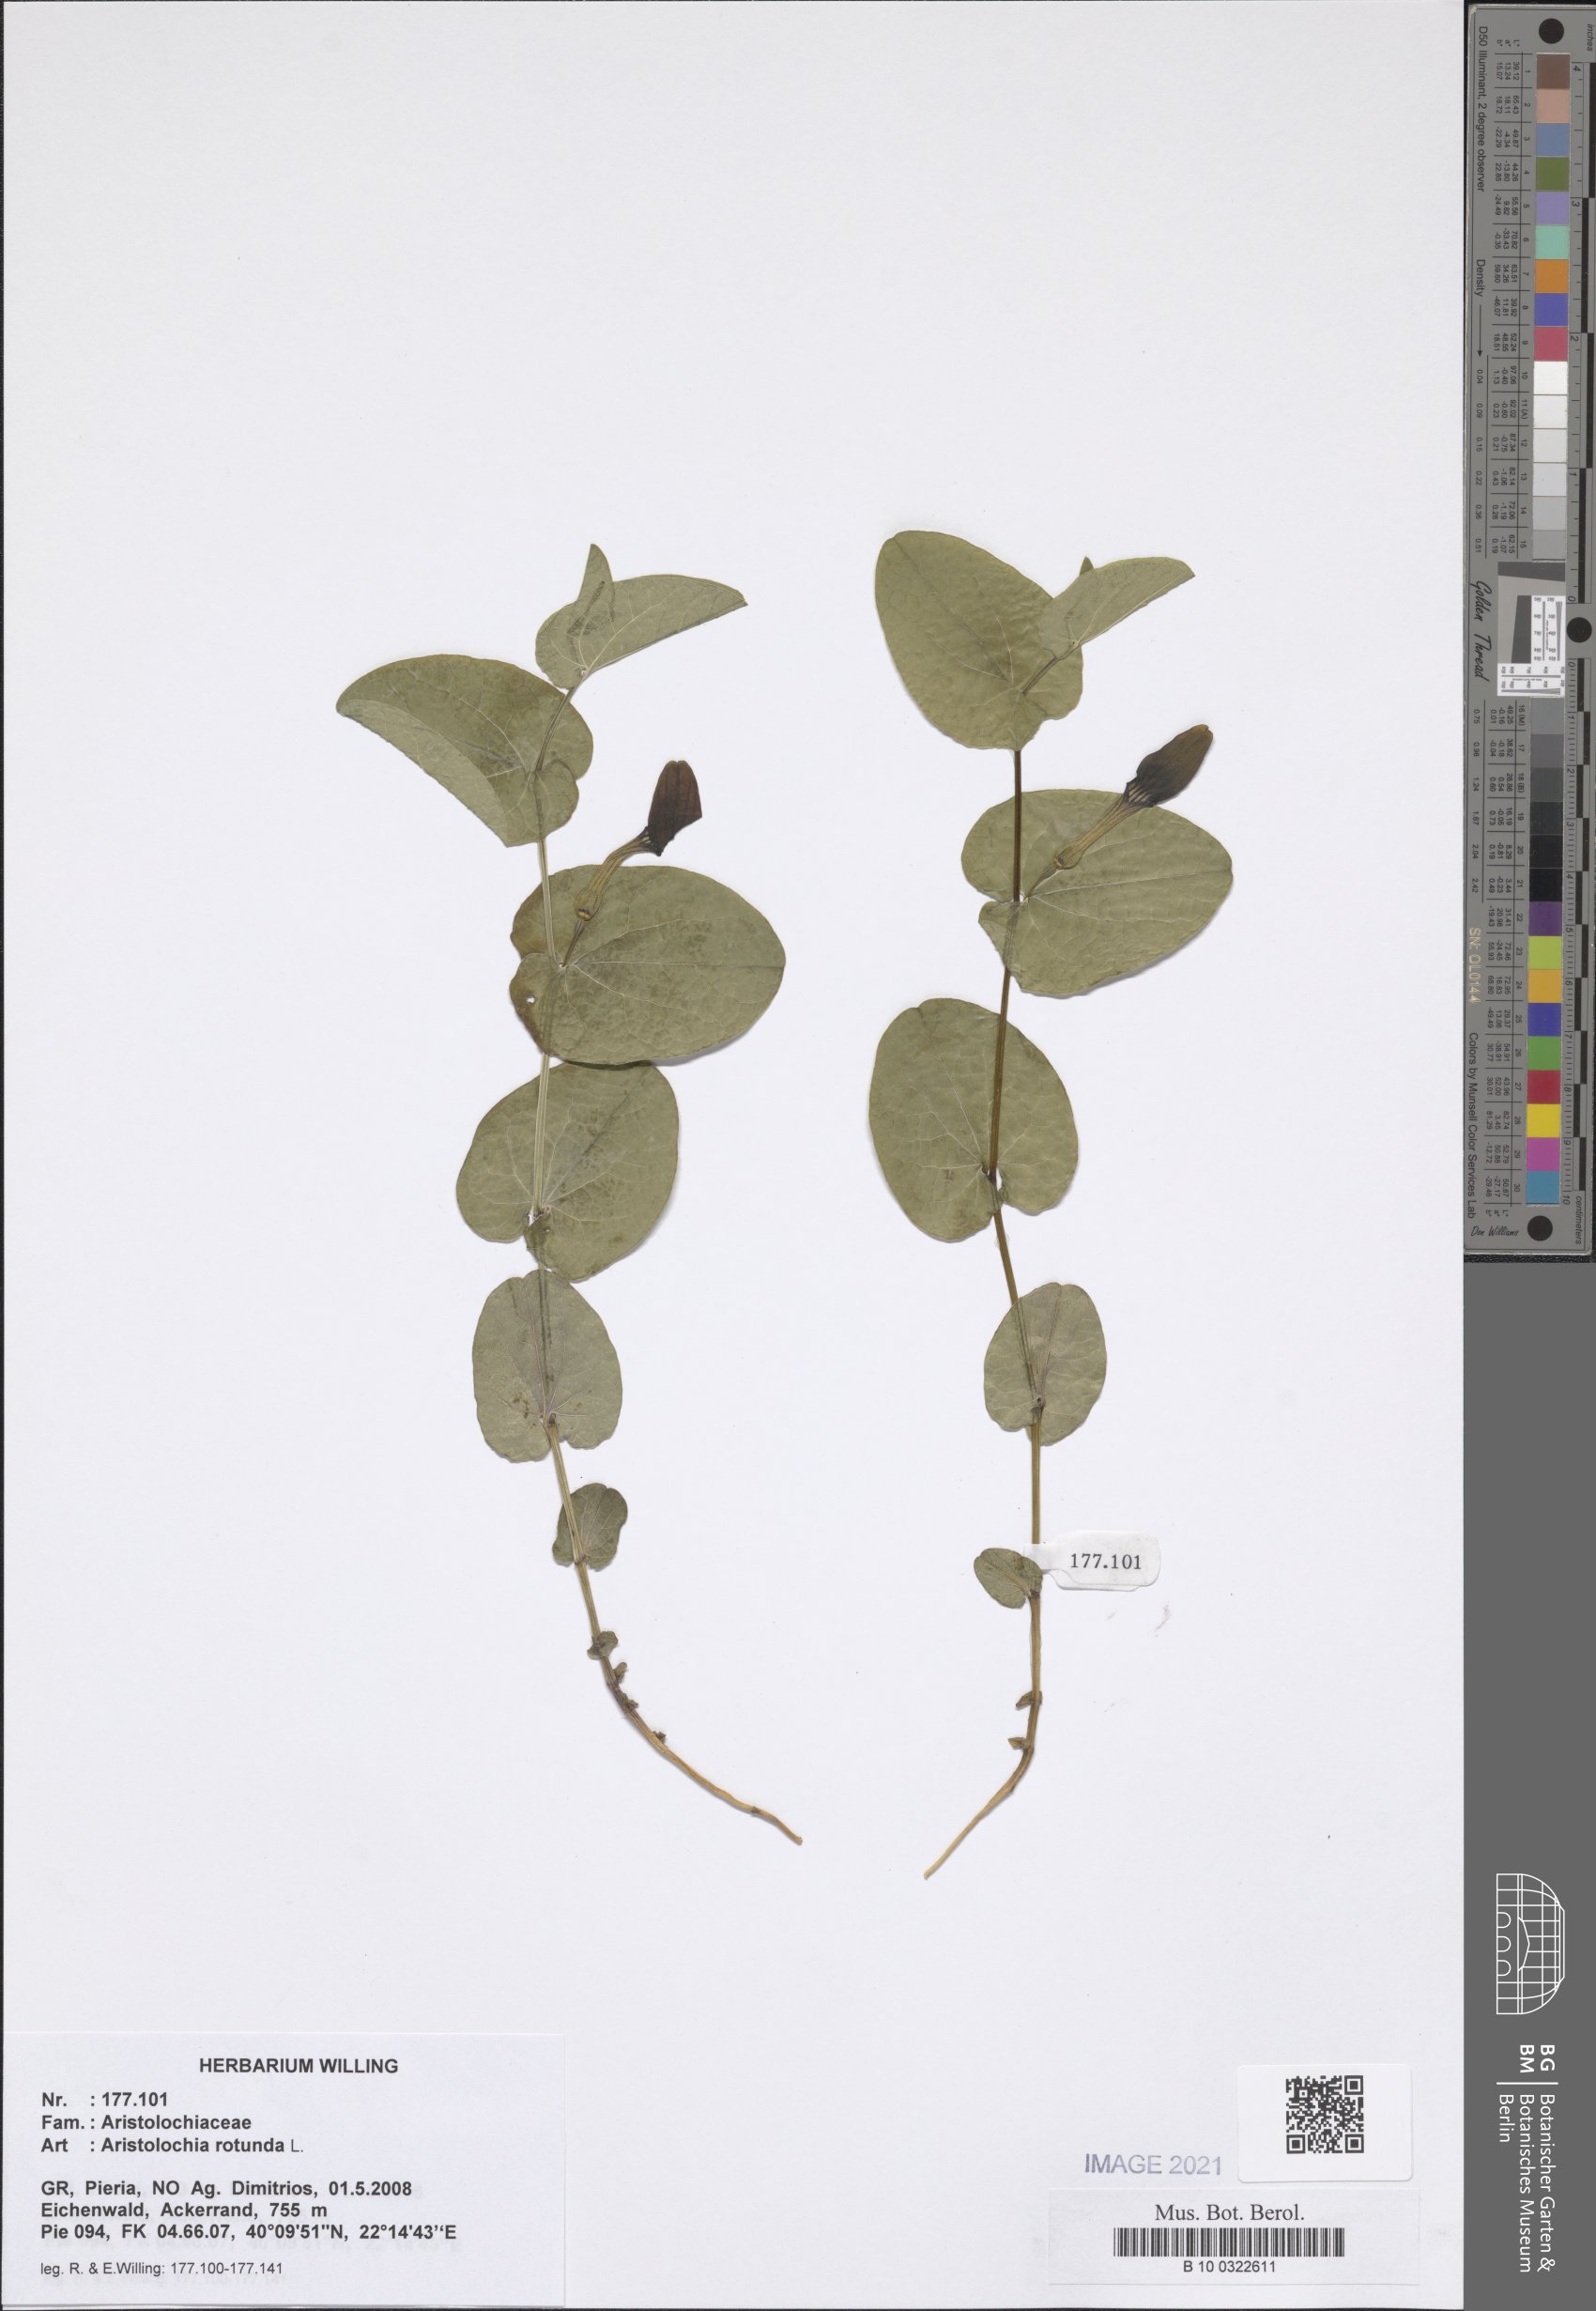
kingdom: Plantae
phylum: Tracheophyta
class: Magnoliopsida
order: Piperales
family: Aristolochiaceae
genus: Aristolochia
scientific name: Aristolochia rotunda
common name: Smearwort
